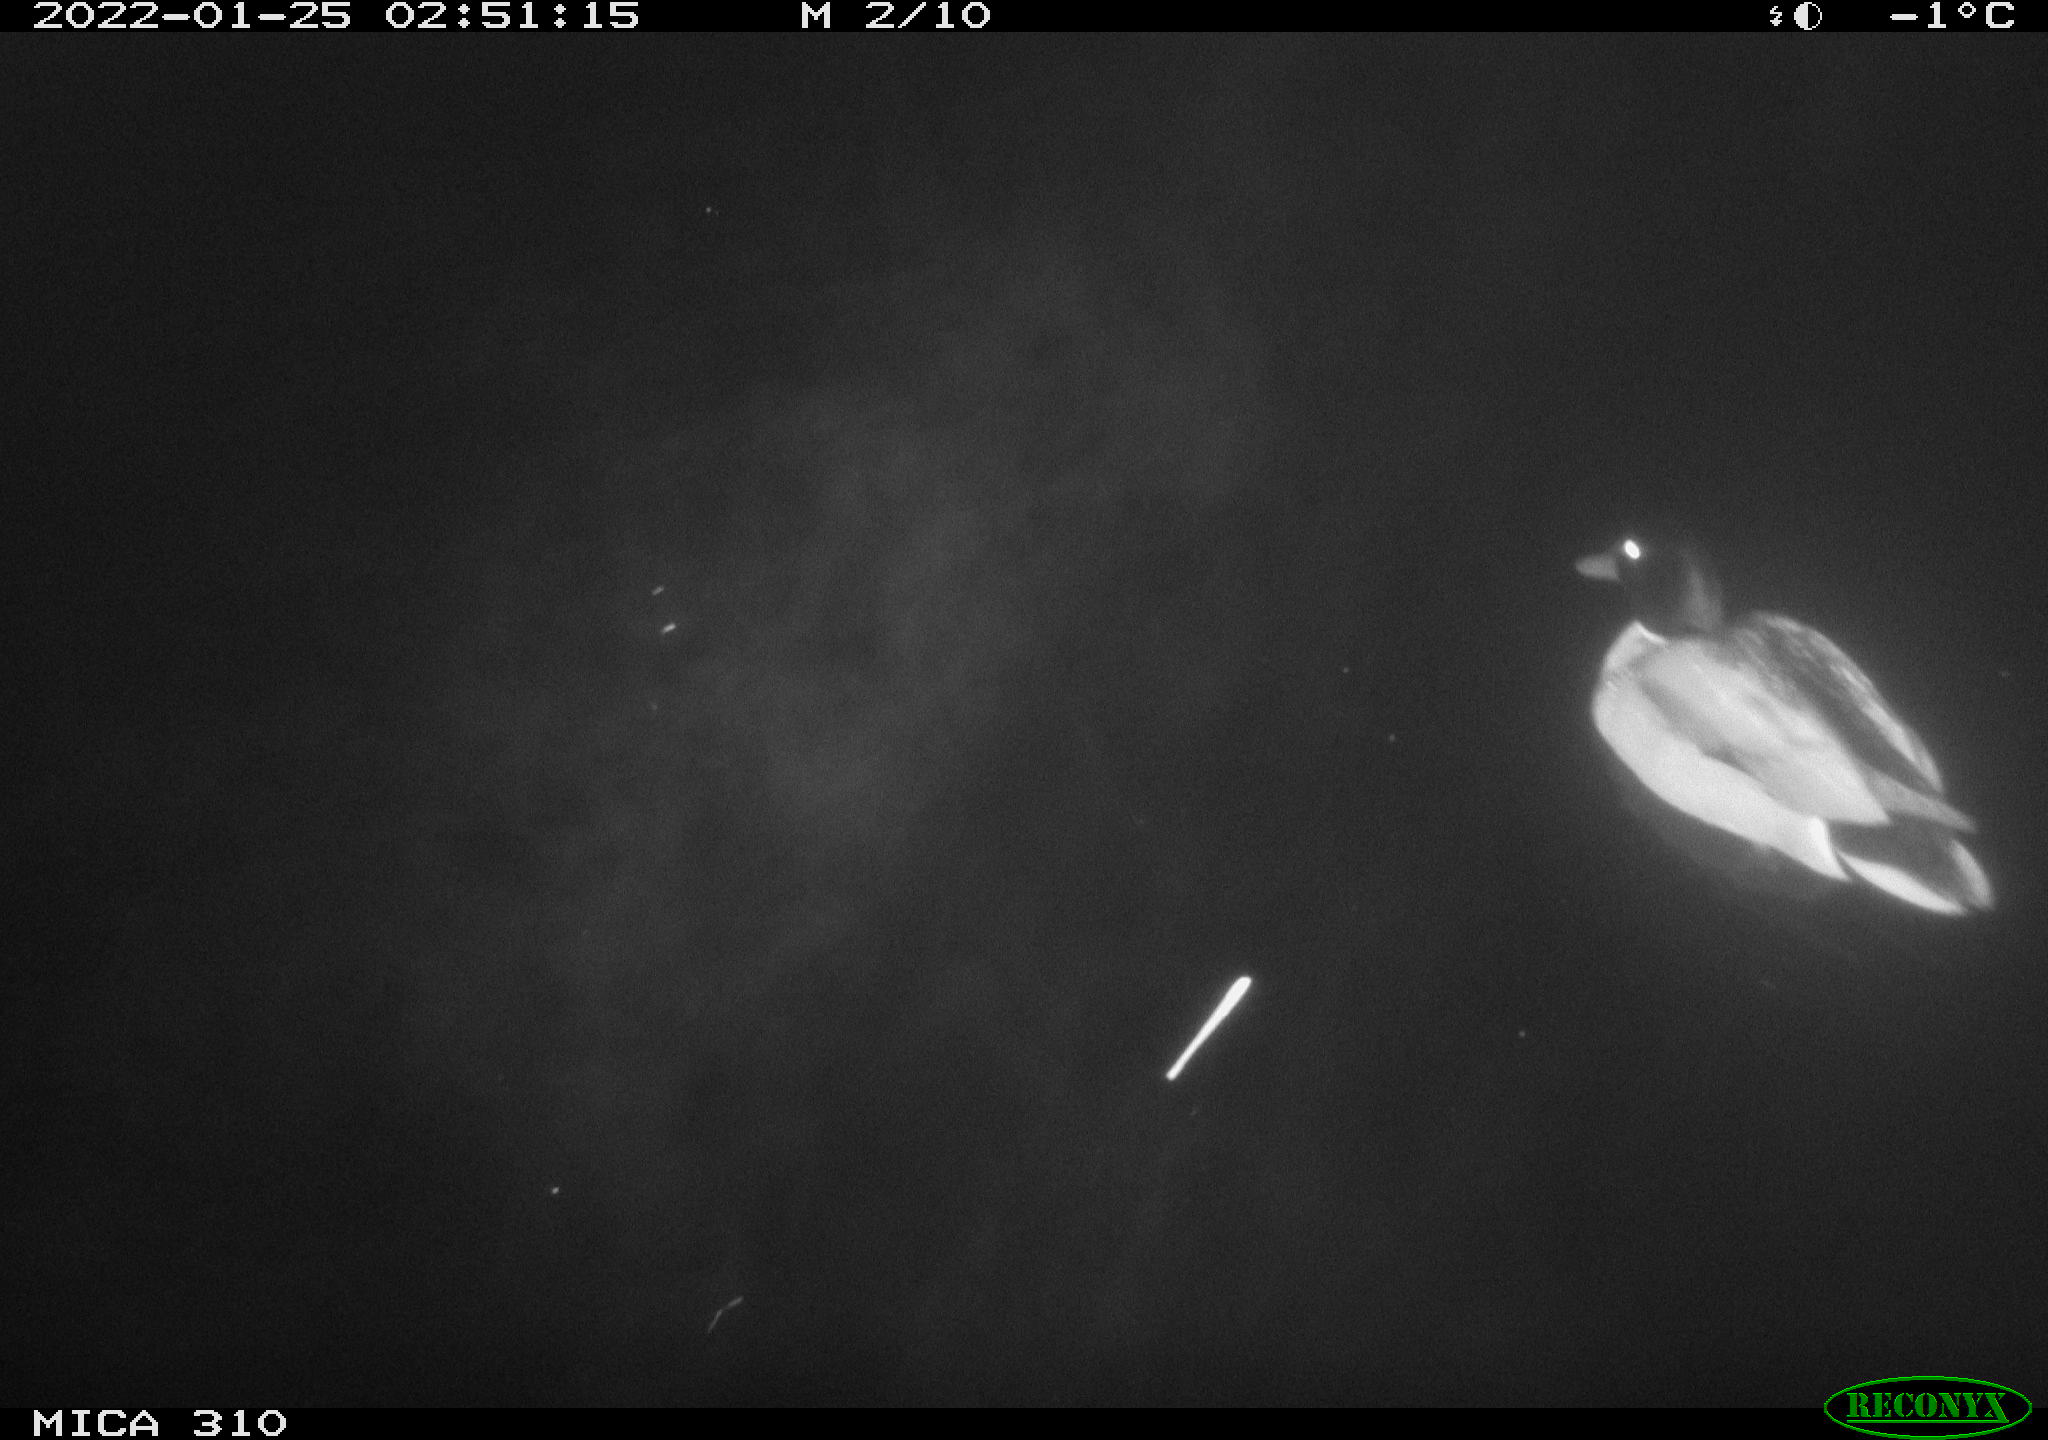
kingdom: Animalia
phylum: Chordata
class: Aves
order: Anseriformes
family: Anatidae
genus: Anas
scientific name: Anas
